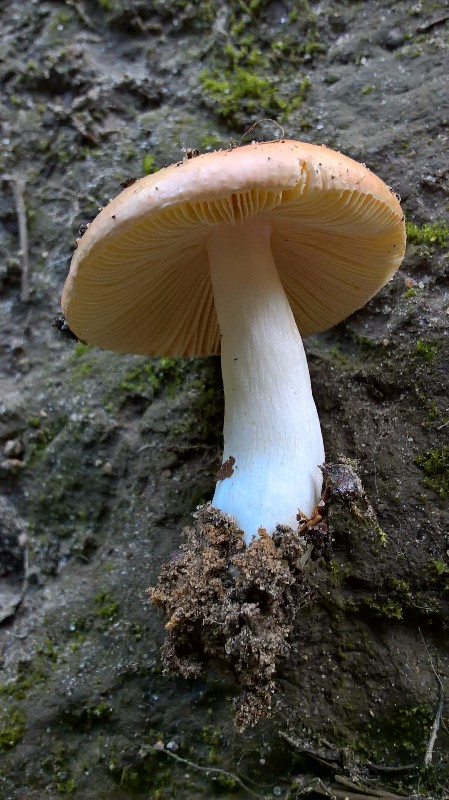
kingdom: Fungi
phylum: Basidiomycota
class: Agaricomycetes
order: Russulales
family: Russulaceae
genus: Russula
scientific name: Russula risigallina
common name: abrikos-skørhat
